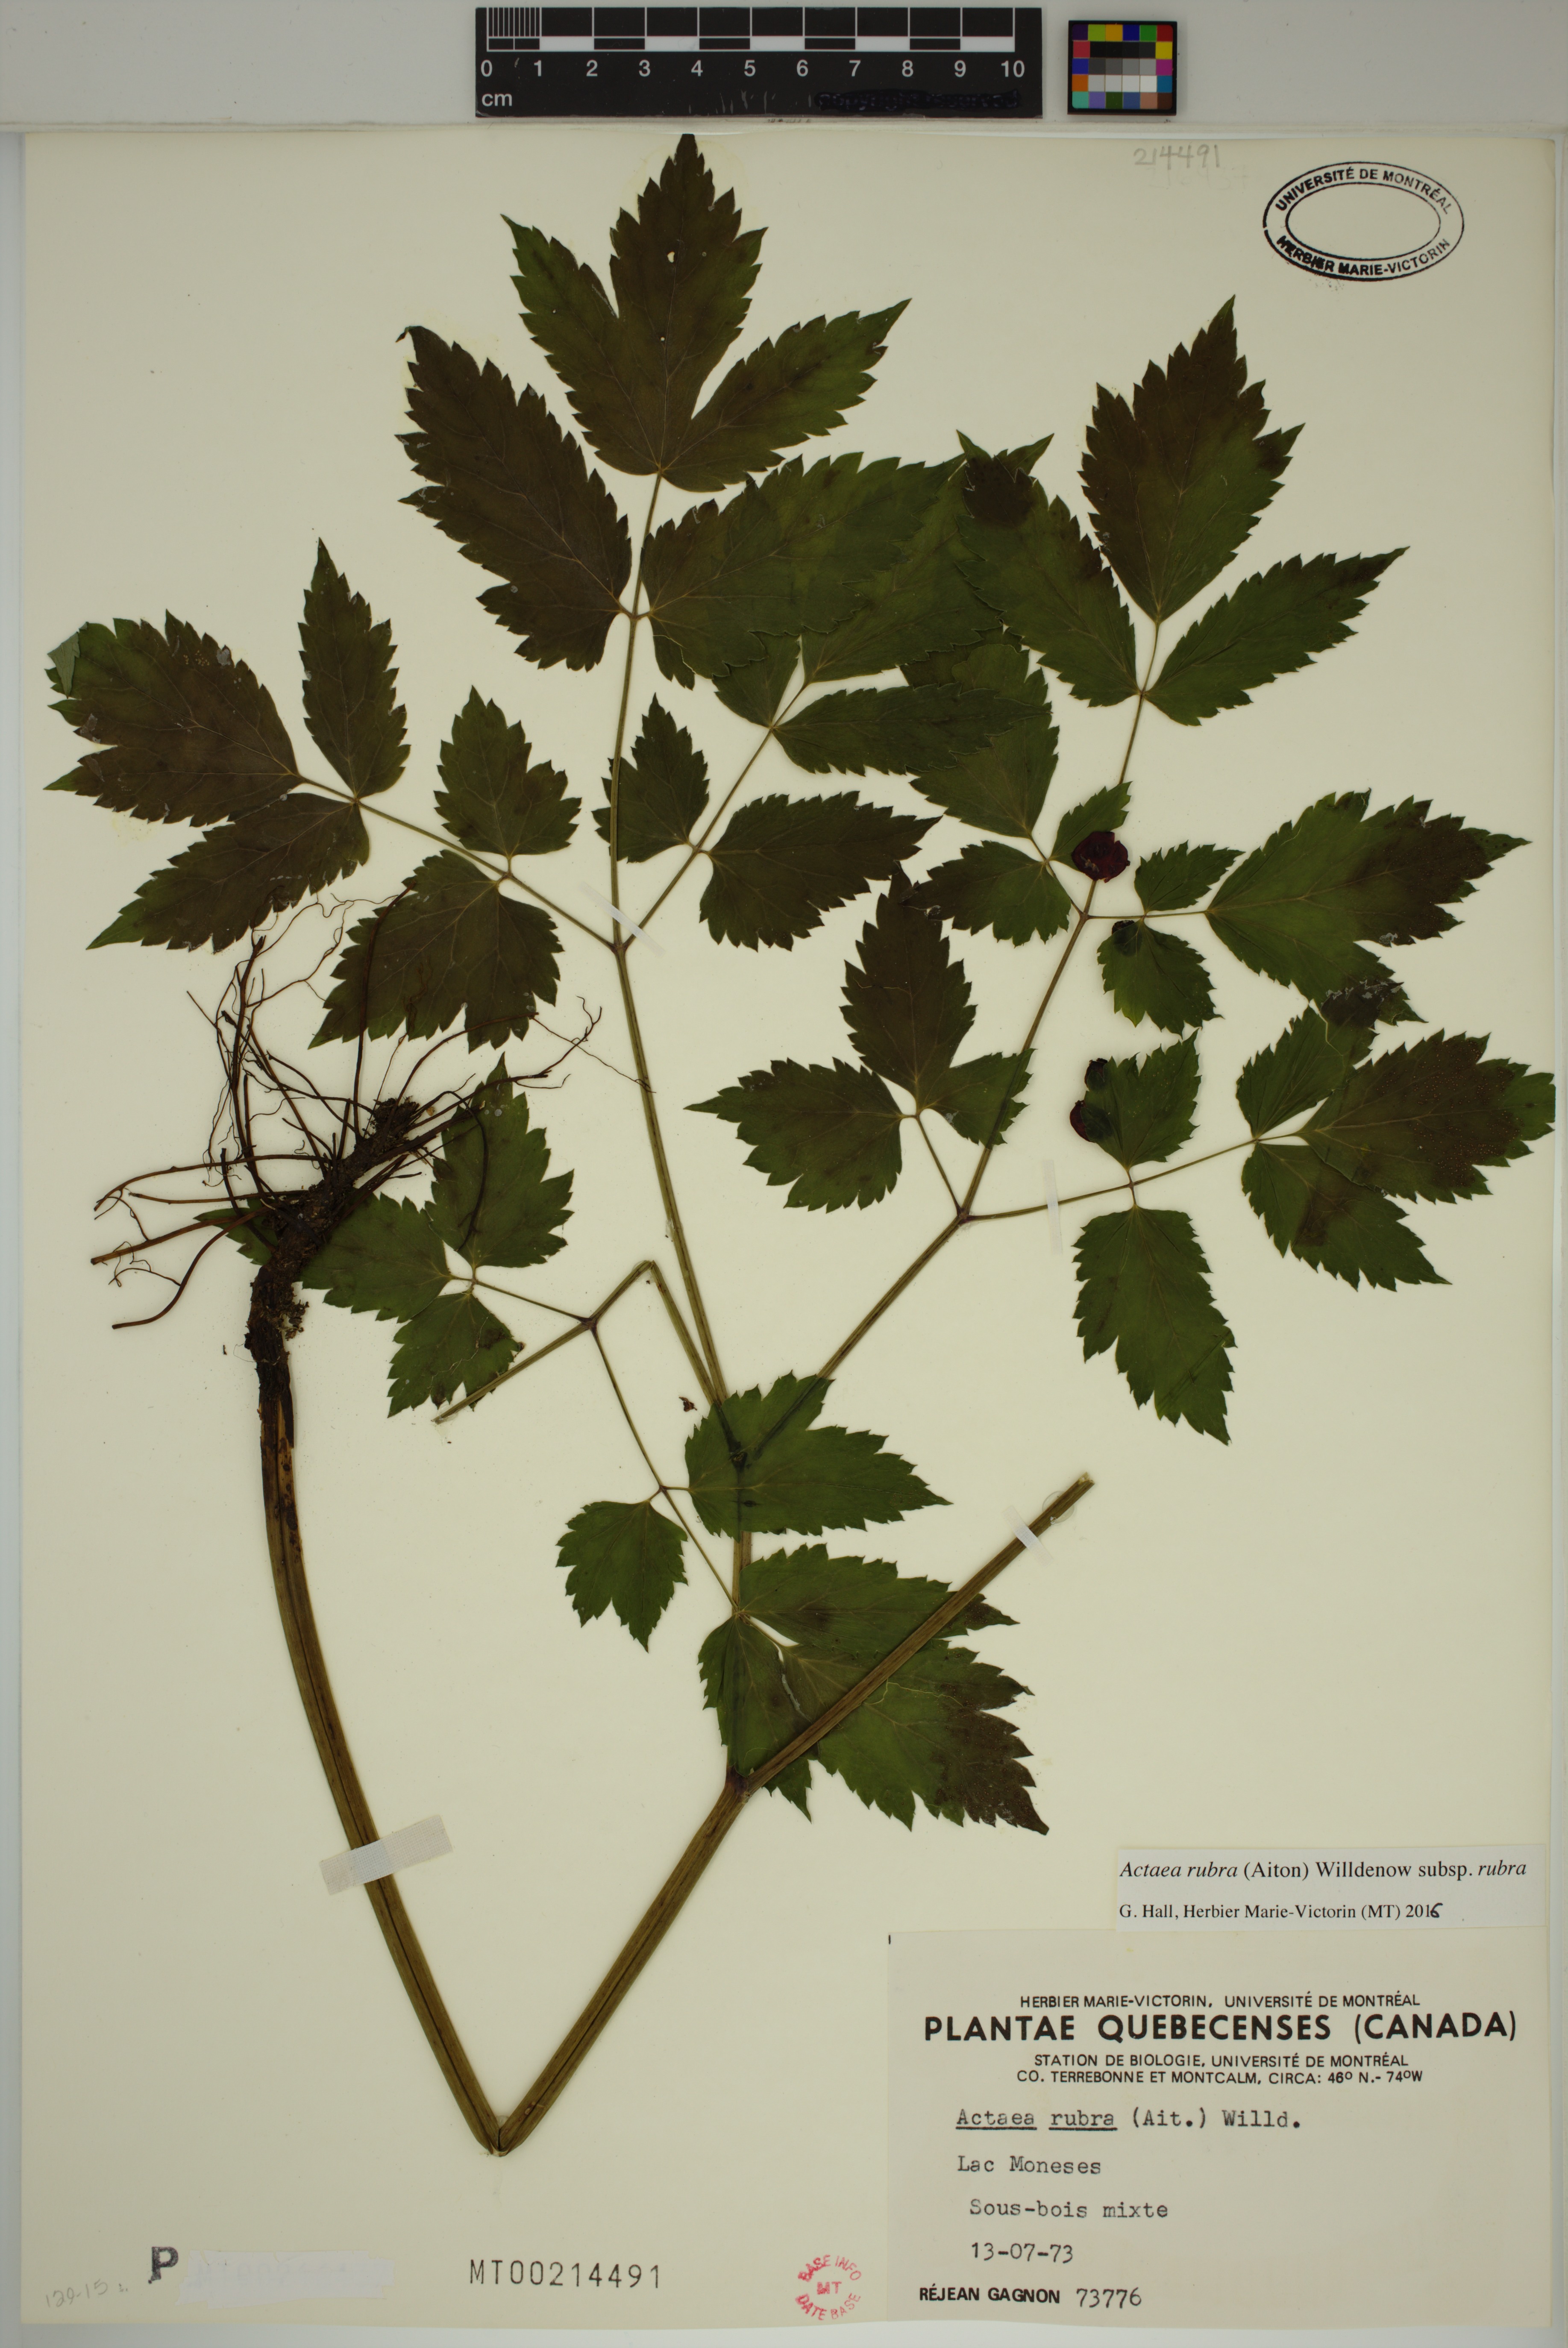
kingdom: Plantae
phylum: Tracheophyta
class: Magnoliopsida
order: Ranunculales
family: Ranunculaceae
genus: Actaea
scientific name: Actaea rubra
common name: Red baneberry
